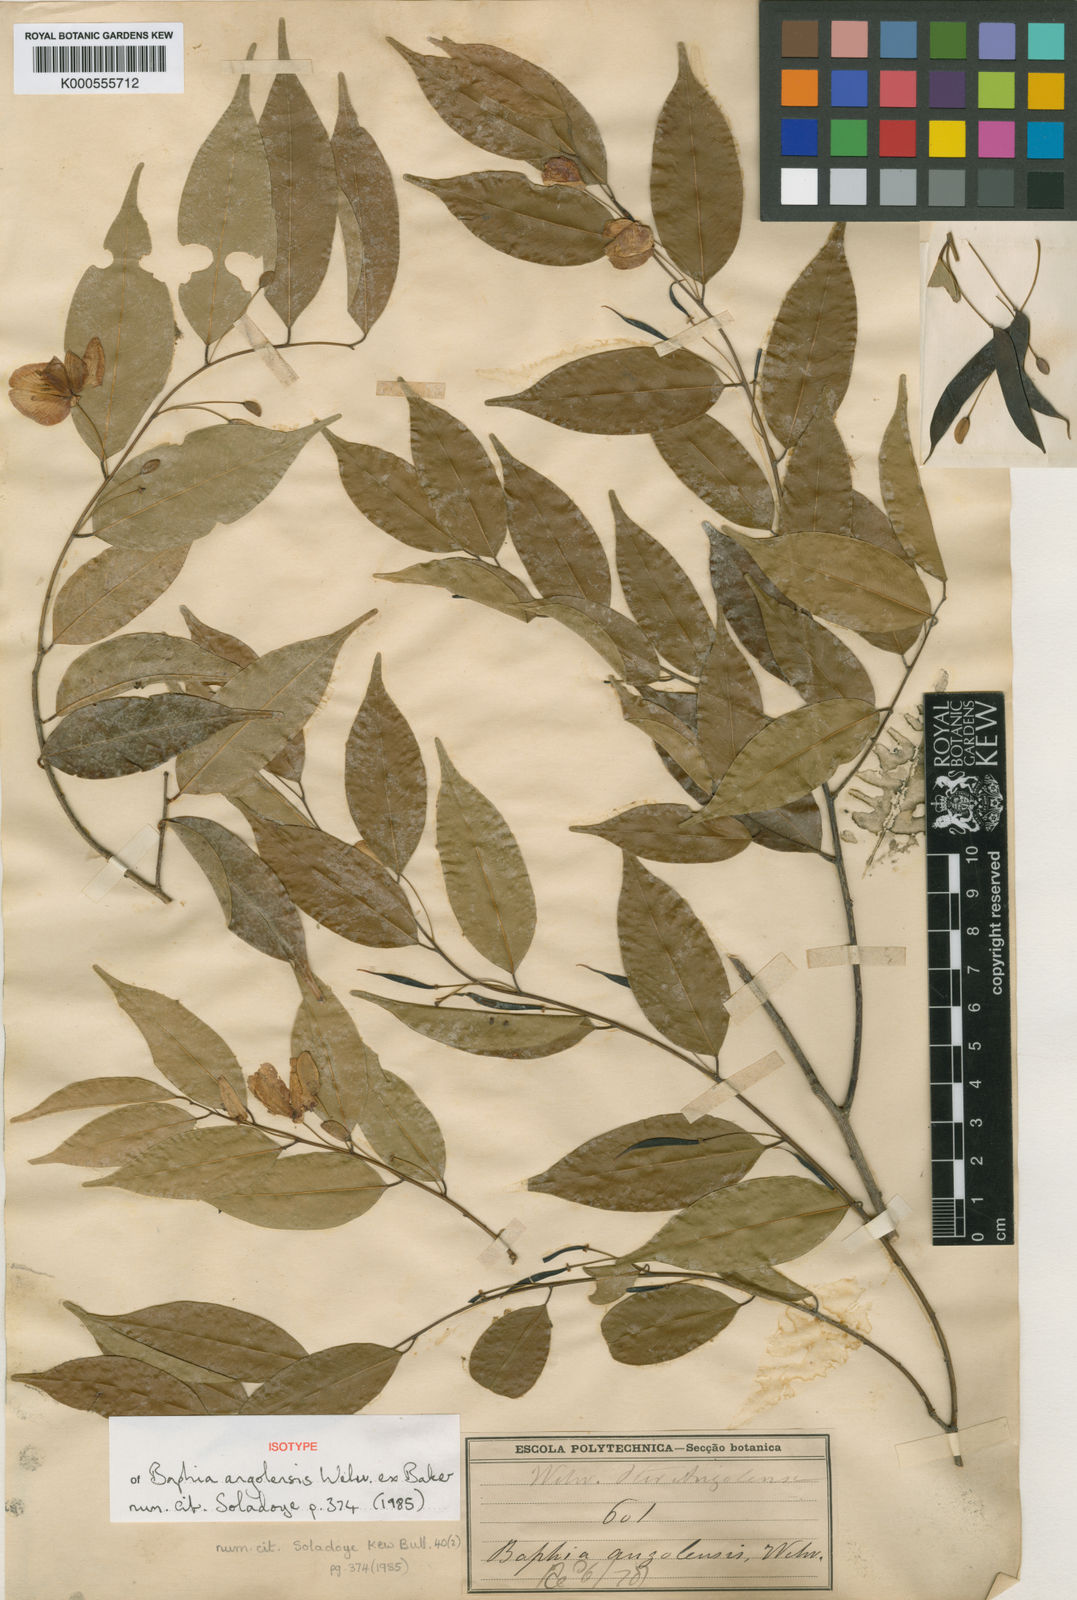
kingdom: Plantae
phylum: Tracheophyta
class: Magnoliopsida
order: Fabales
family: Fabaceae
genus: Baphia
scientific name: Baphia angolensis
